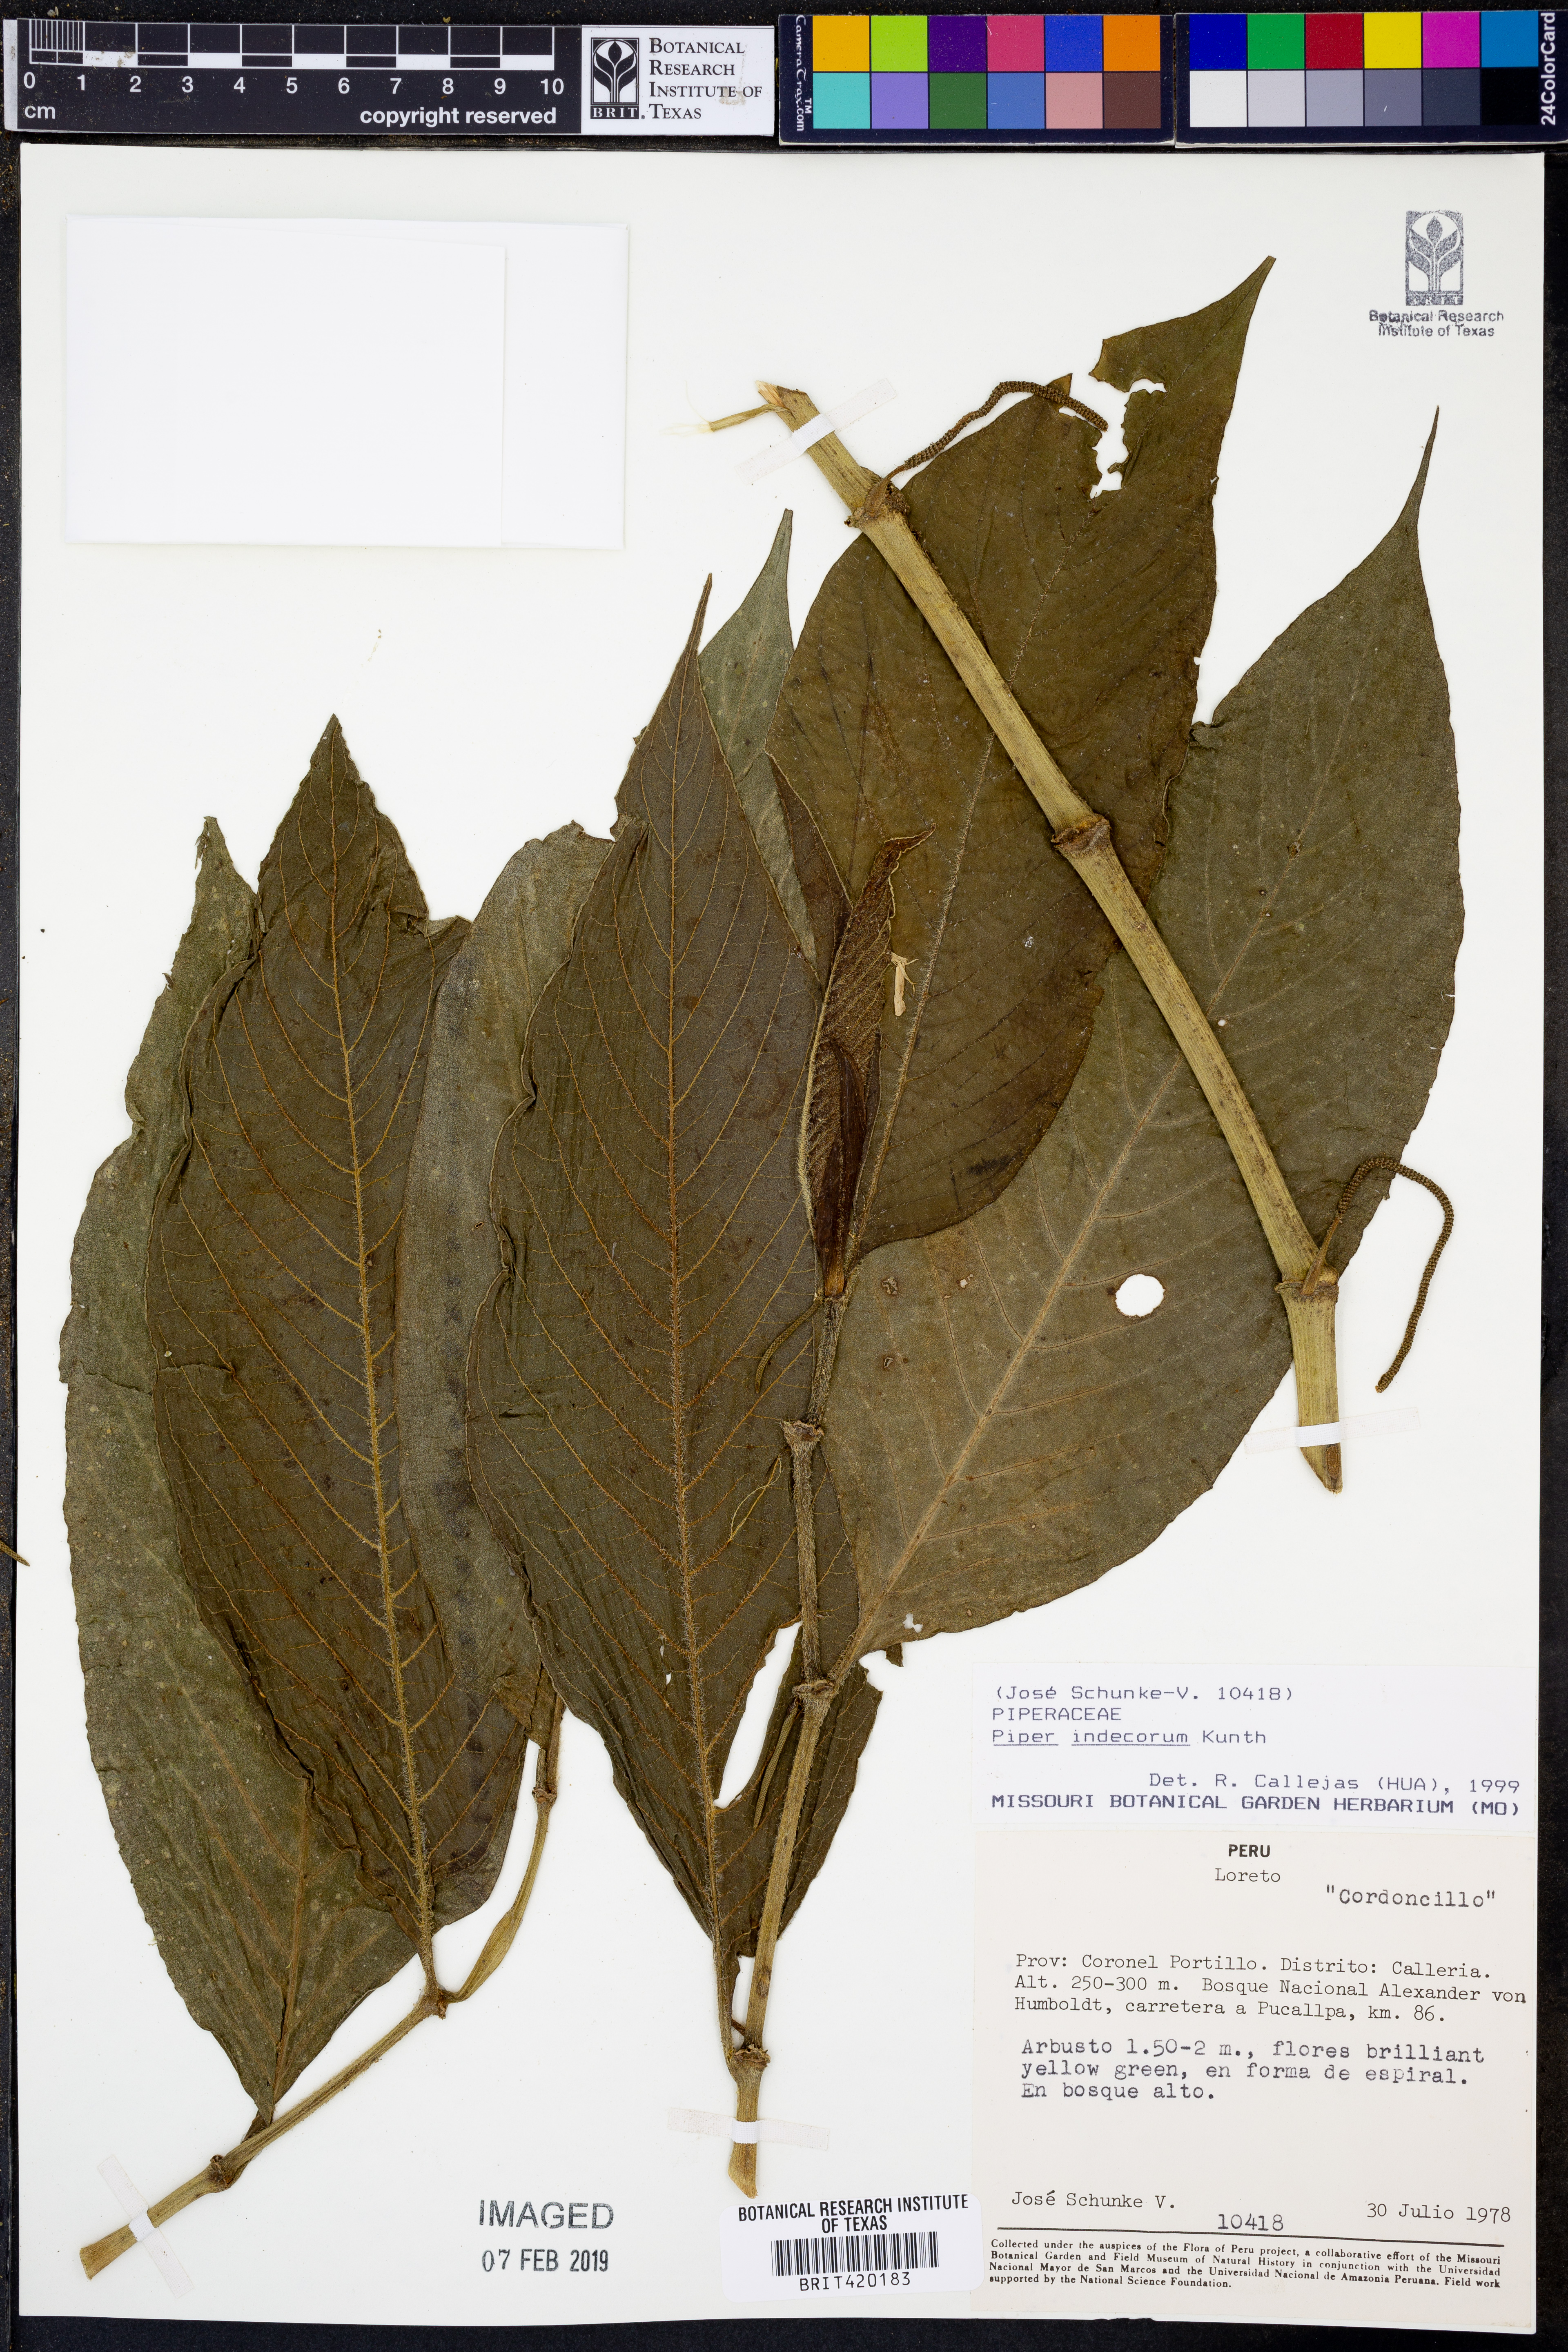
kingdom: Plantae
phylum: Tracheophyta
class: Magnoliopsida
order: Piperales
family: Piperaceae
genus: Piper
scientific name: Piper indecorum
